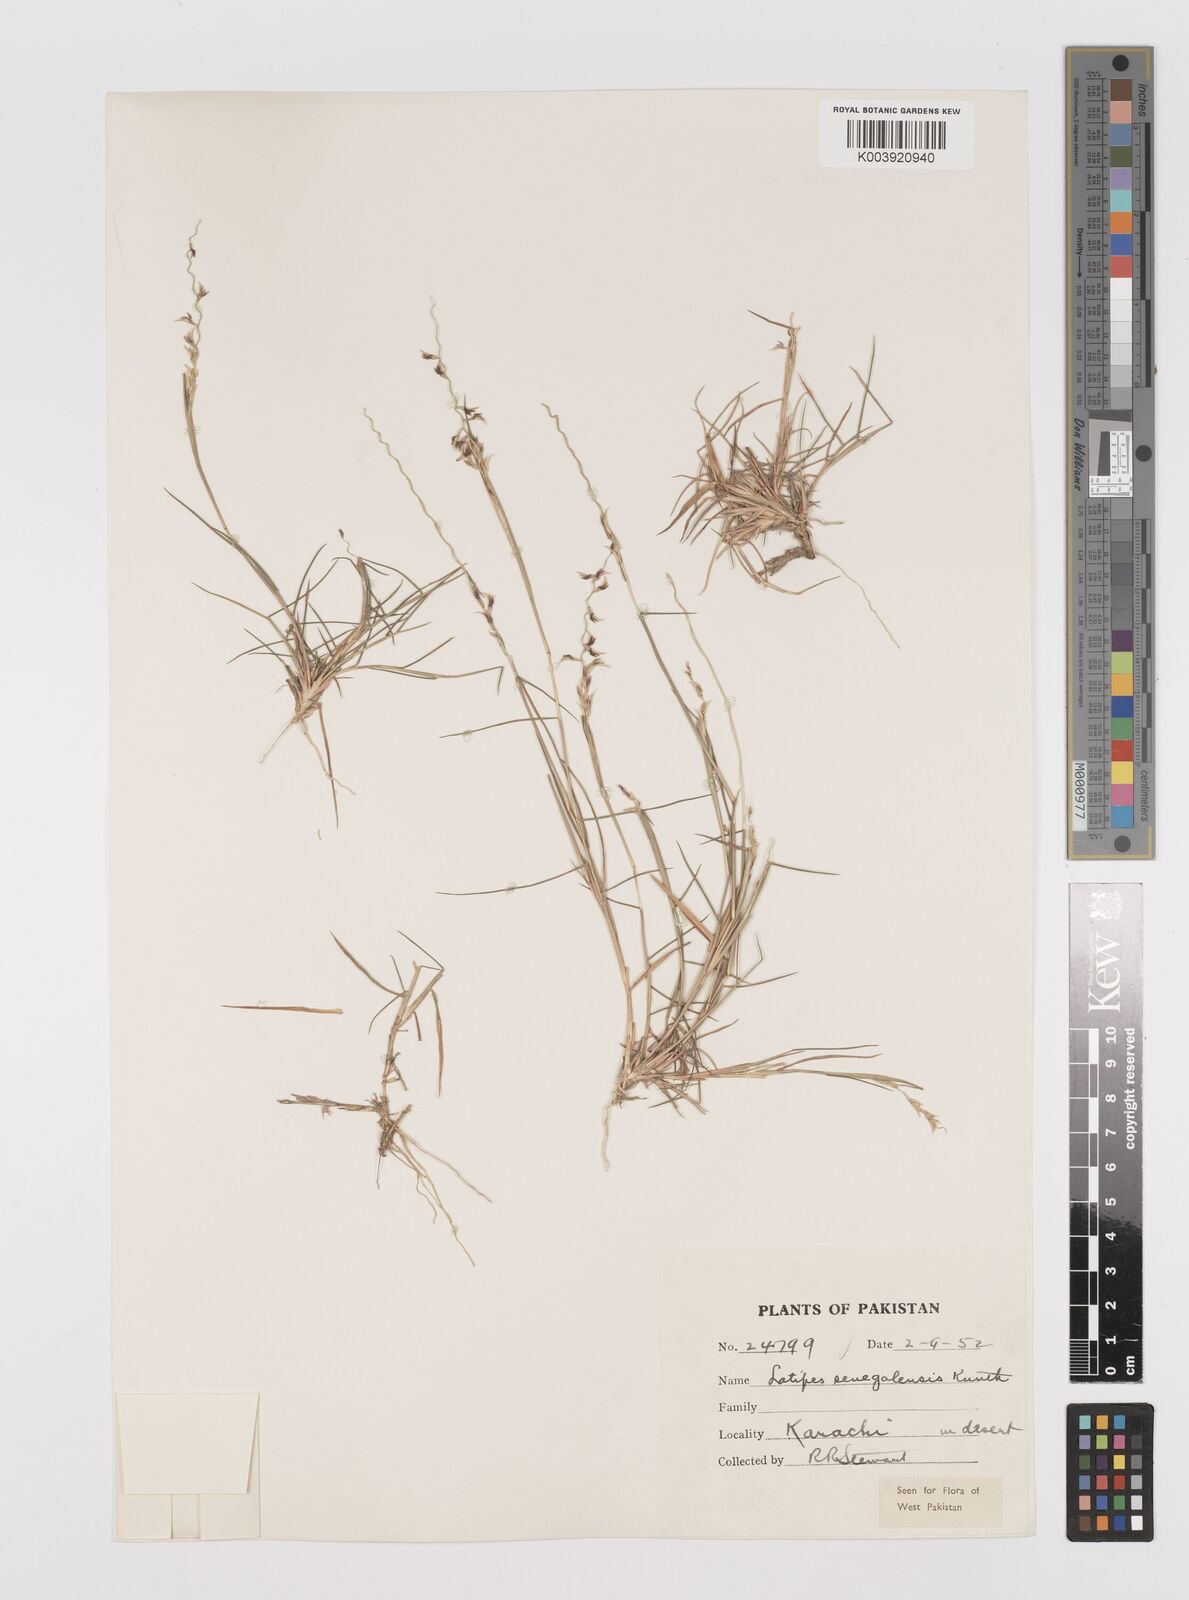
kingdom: Plantae
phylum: Tracheophyta
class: Liliopsida
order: Poales
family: Poaceae
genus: Leptothrium
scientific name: Leptothrium senegalense
